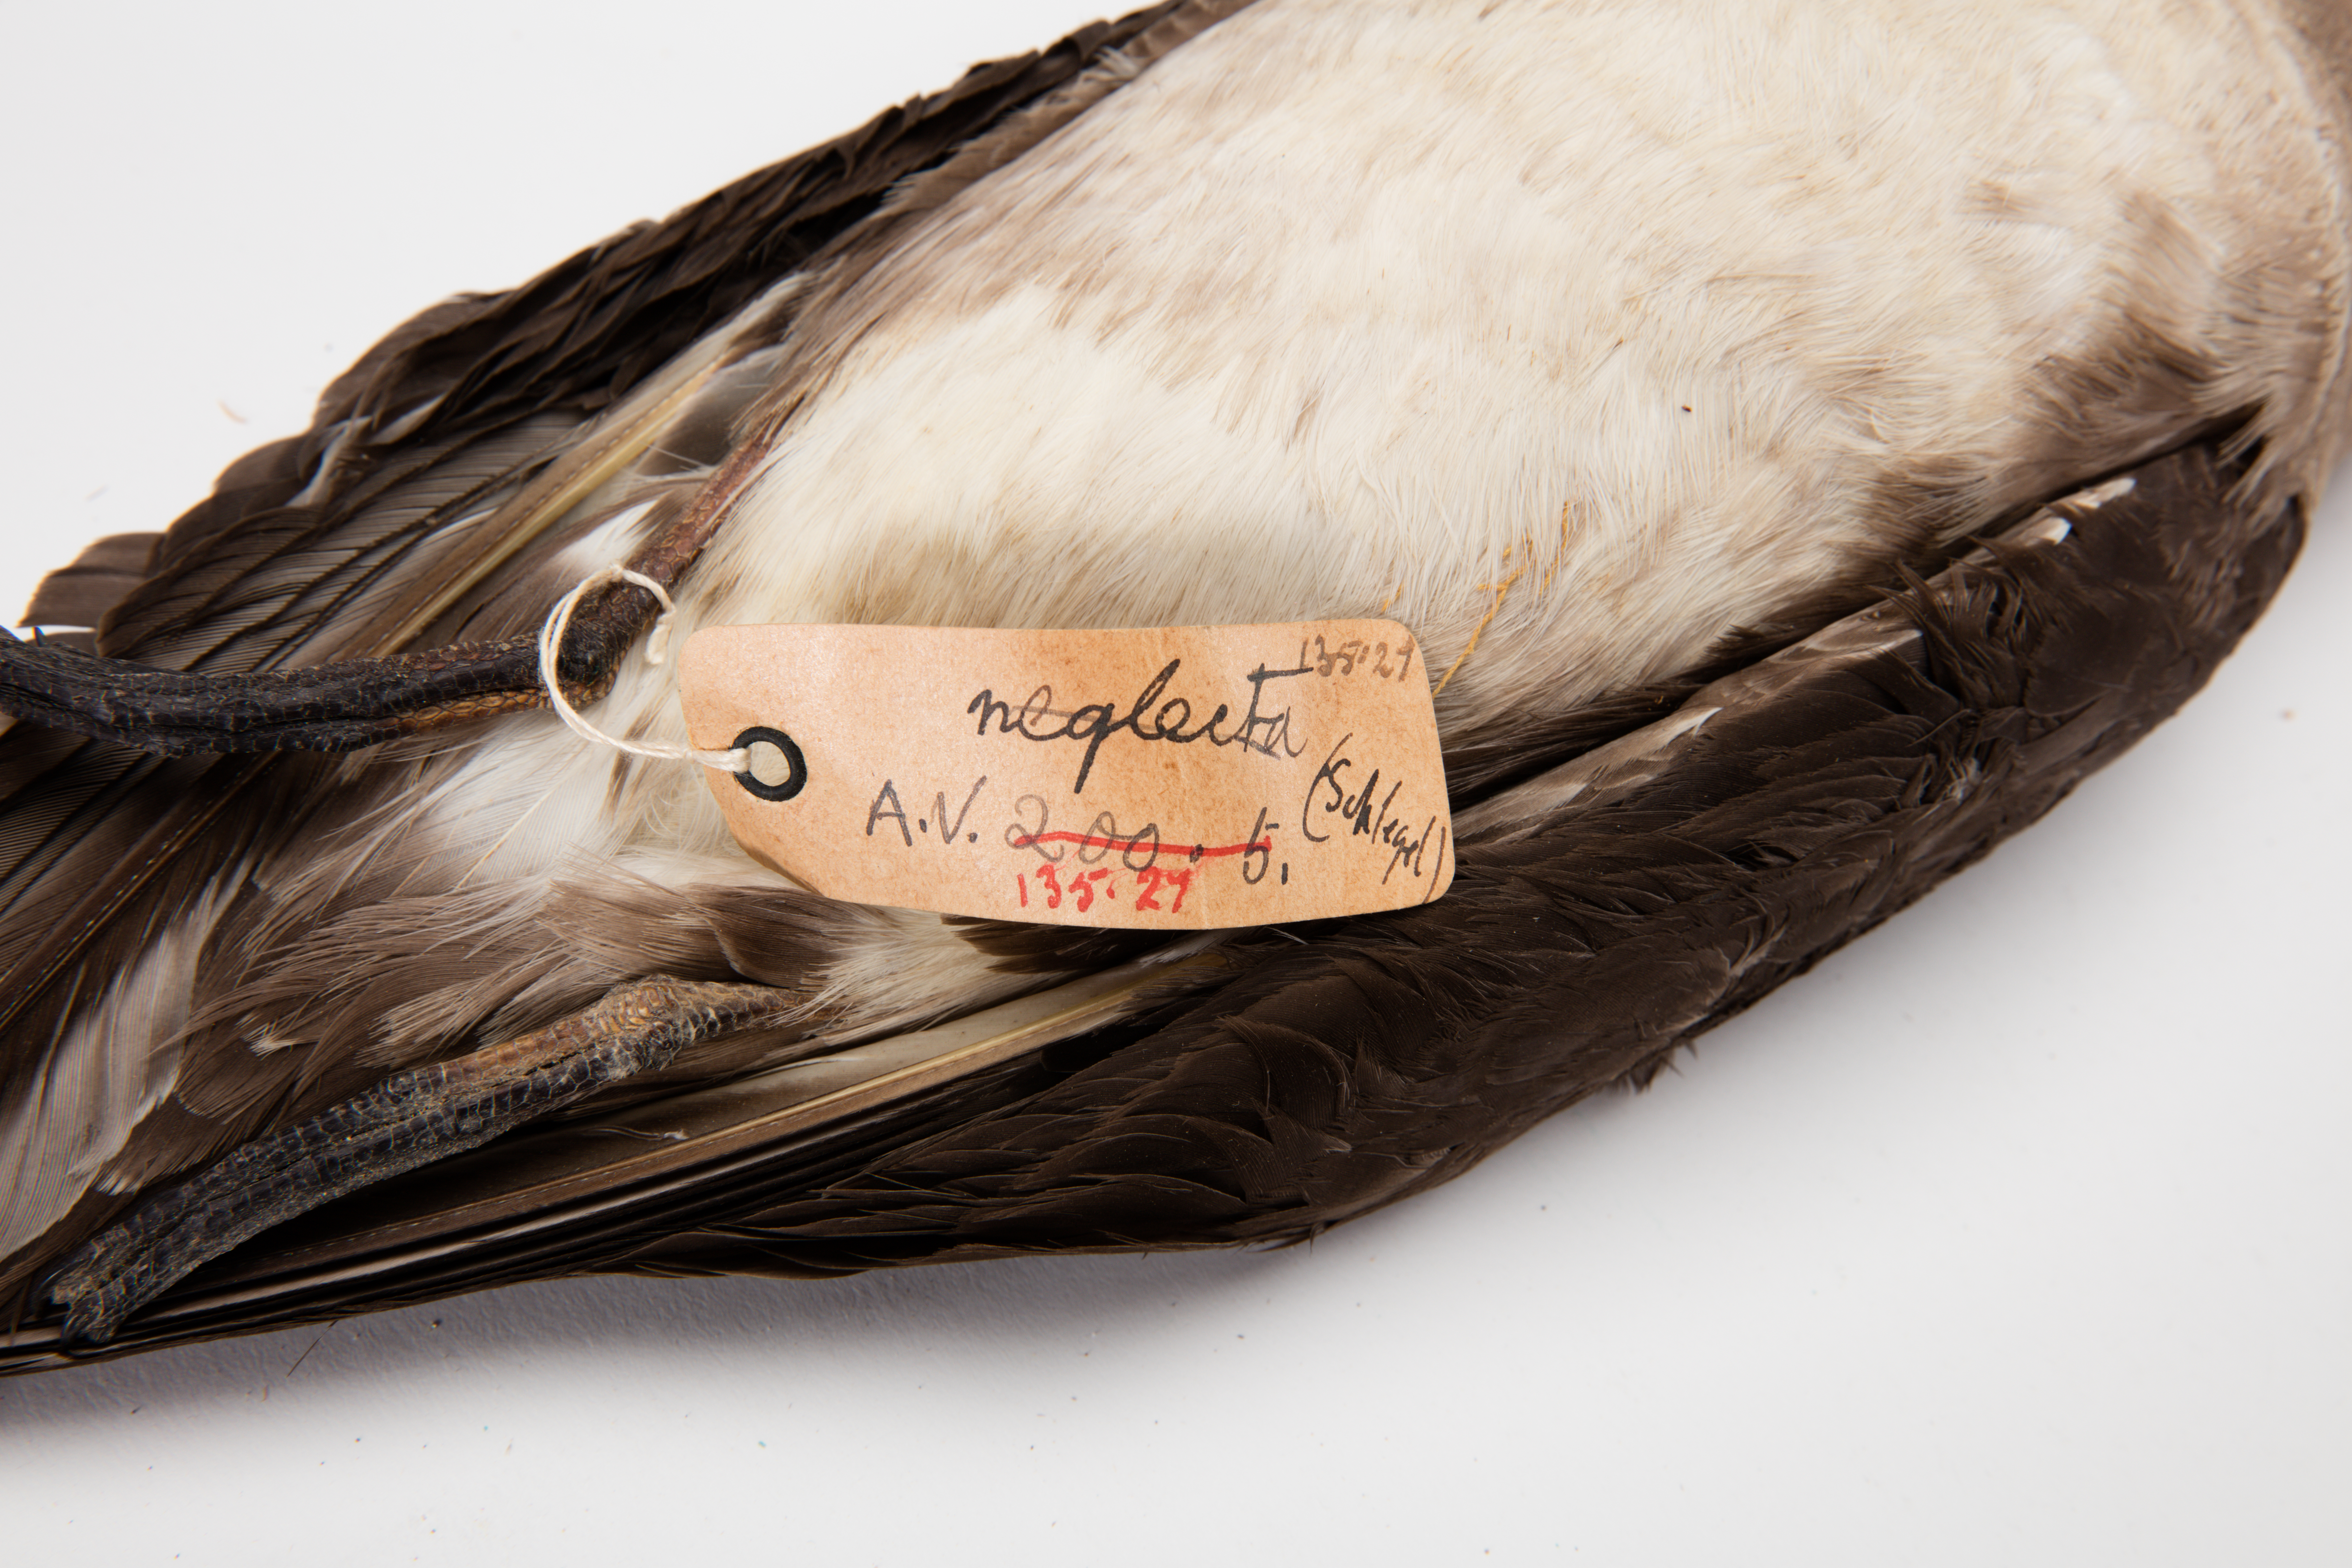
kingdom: Animalia
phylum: Chordata
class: Aves
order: Procellariiformes
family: Procellariidae
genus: Pterodroma
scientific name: Pterodroma neglecta
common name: Kermadec petrel
